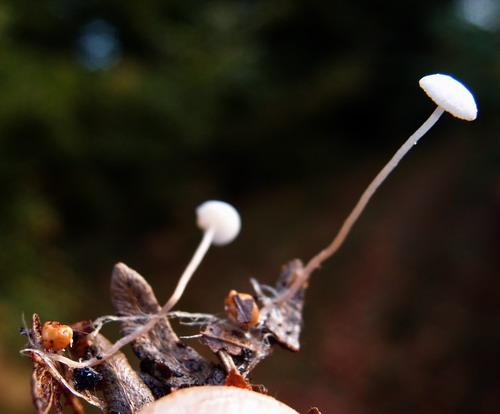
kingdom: Fungi
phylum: Basidiomycota
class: Agaricomycetes
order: Agaricales
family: Tricholomataceae
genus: Collybia
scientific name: Collybia cookei
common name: gulknoldet lighat
